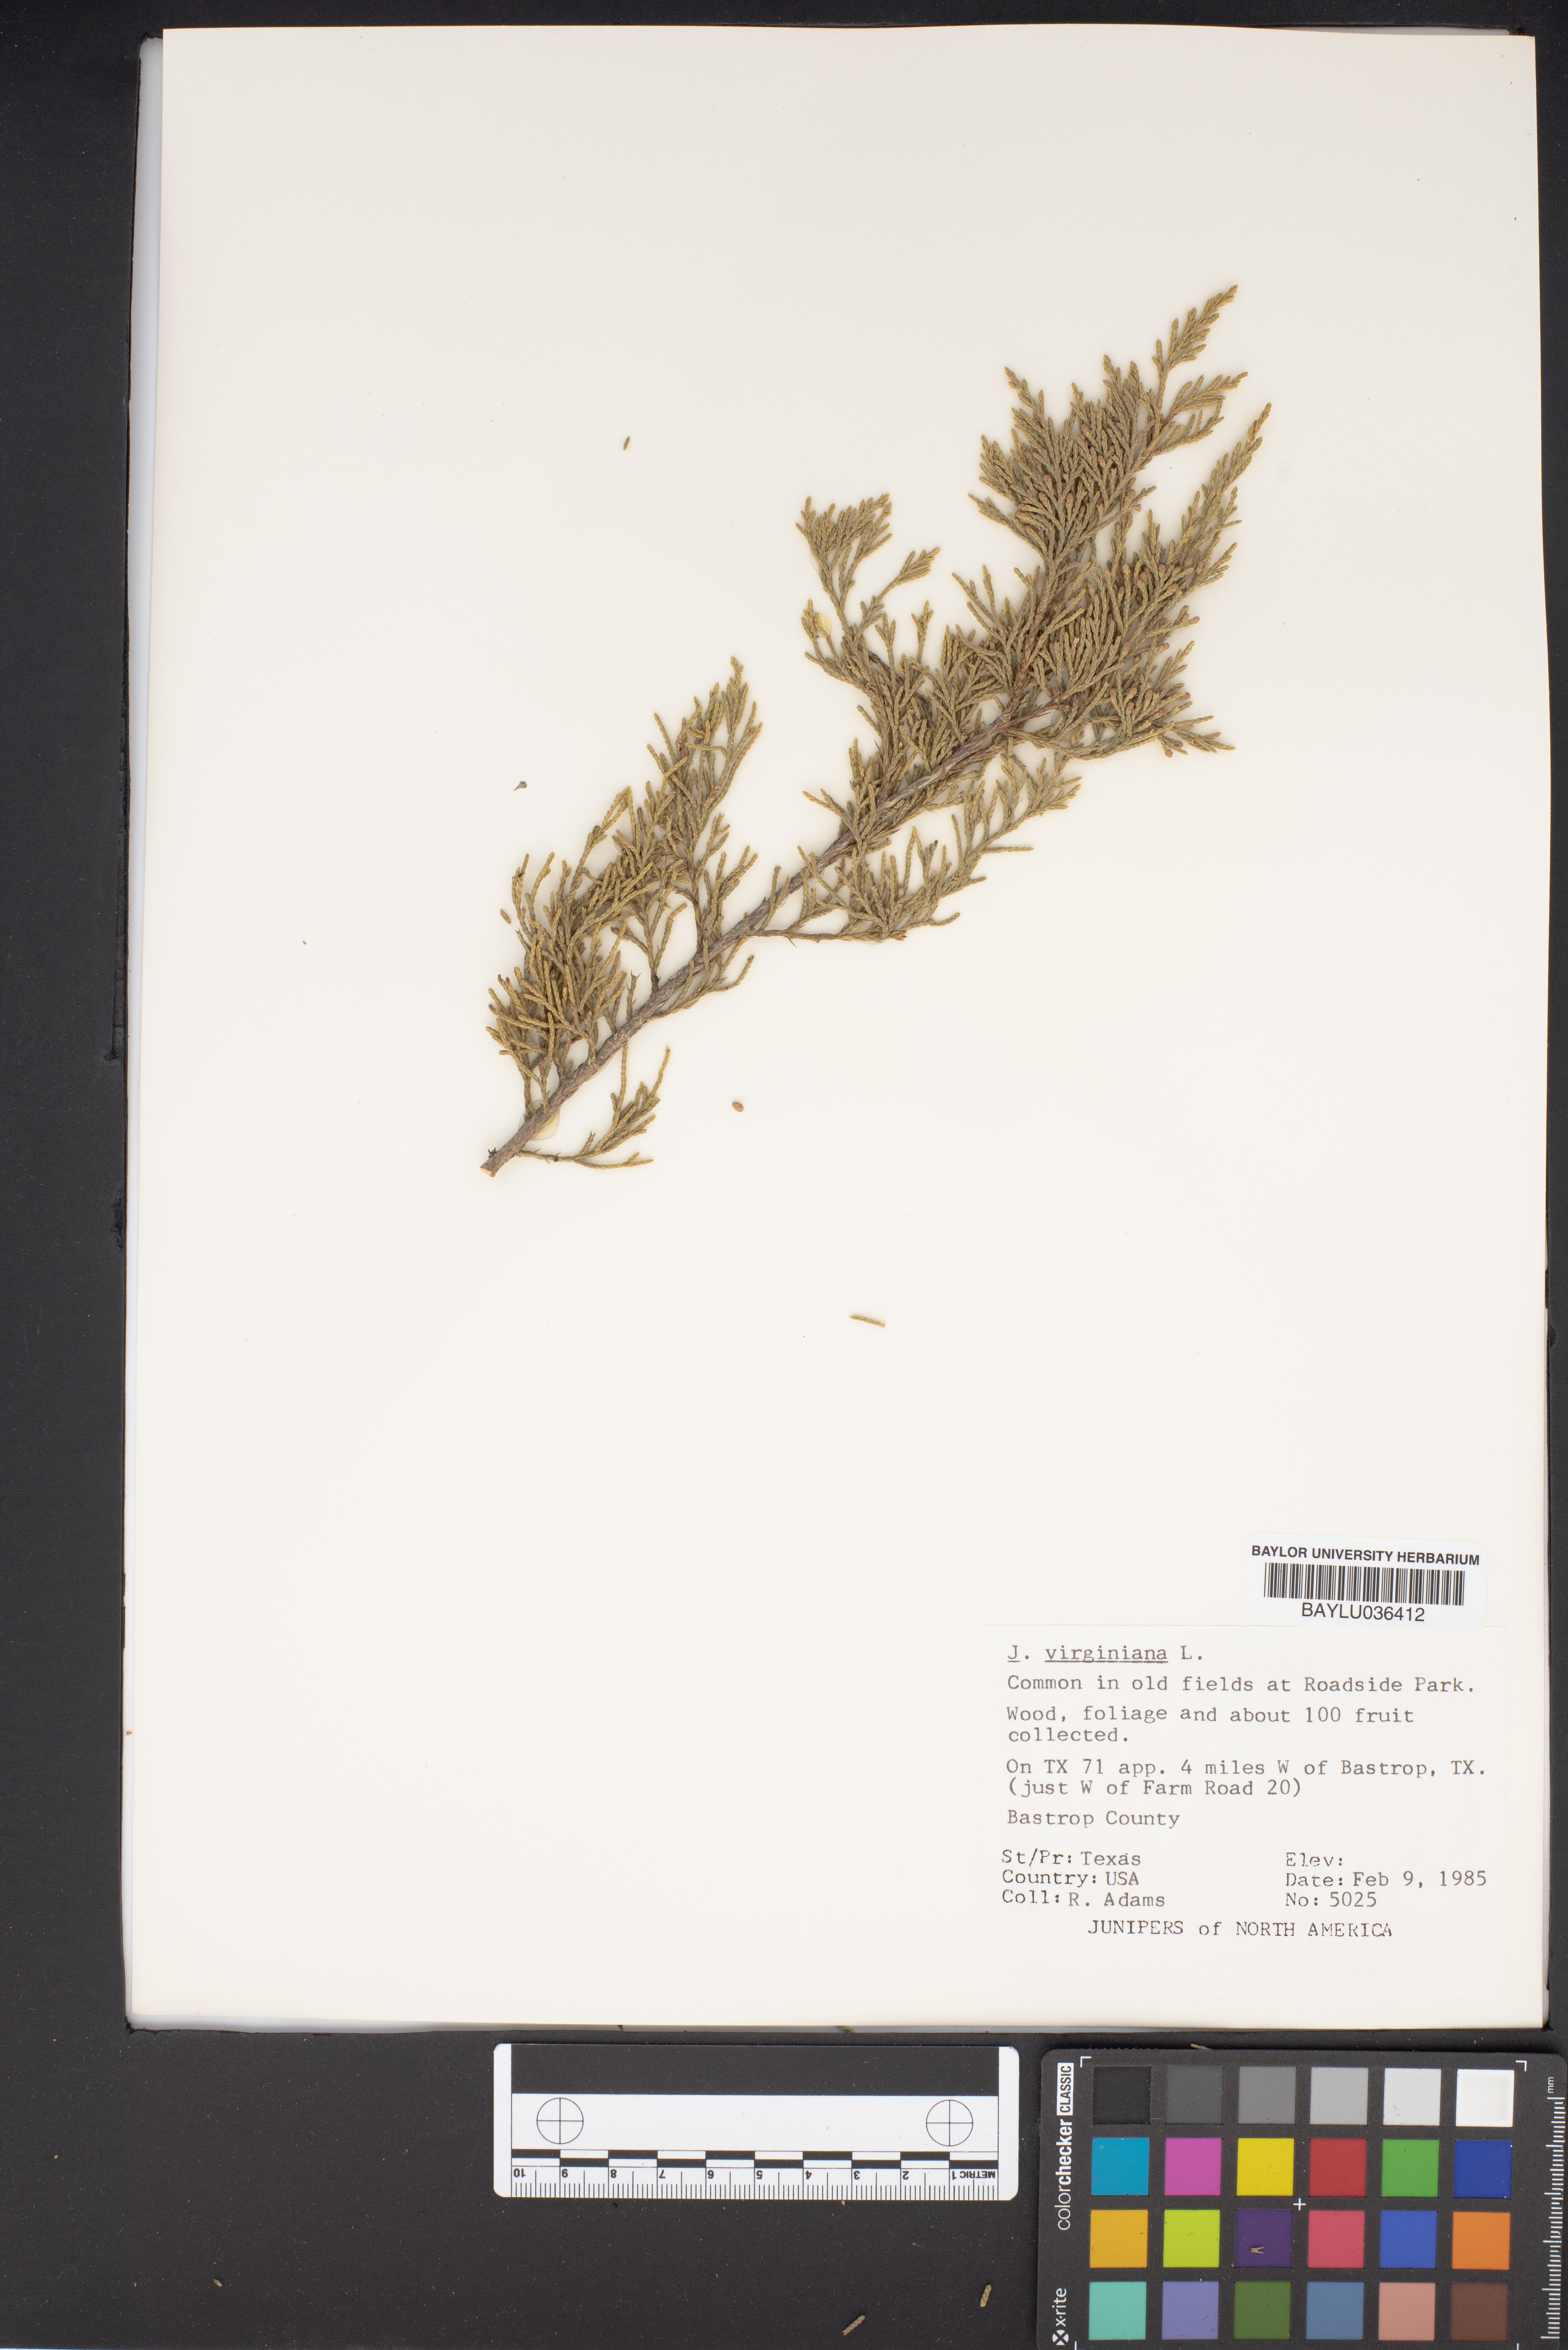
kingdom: Plantae
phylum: Tracheophyta
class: Pinopsida
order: Pinales
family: Cupressaceae
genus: Juniperus
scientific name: Juniperus virginiana
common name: Red juniper
